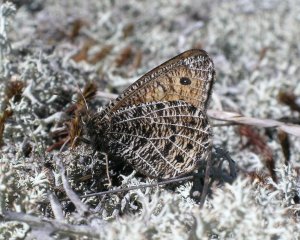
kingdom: Animalia
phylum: Arthropoda
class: Insecta
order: Lepidoptera
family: Nymphalidae
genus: Oeneis
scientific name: Oeneis chryxus
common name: Chryxus Arctic
